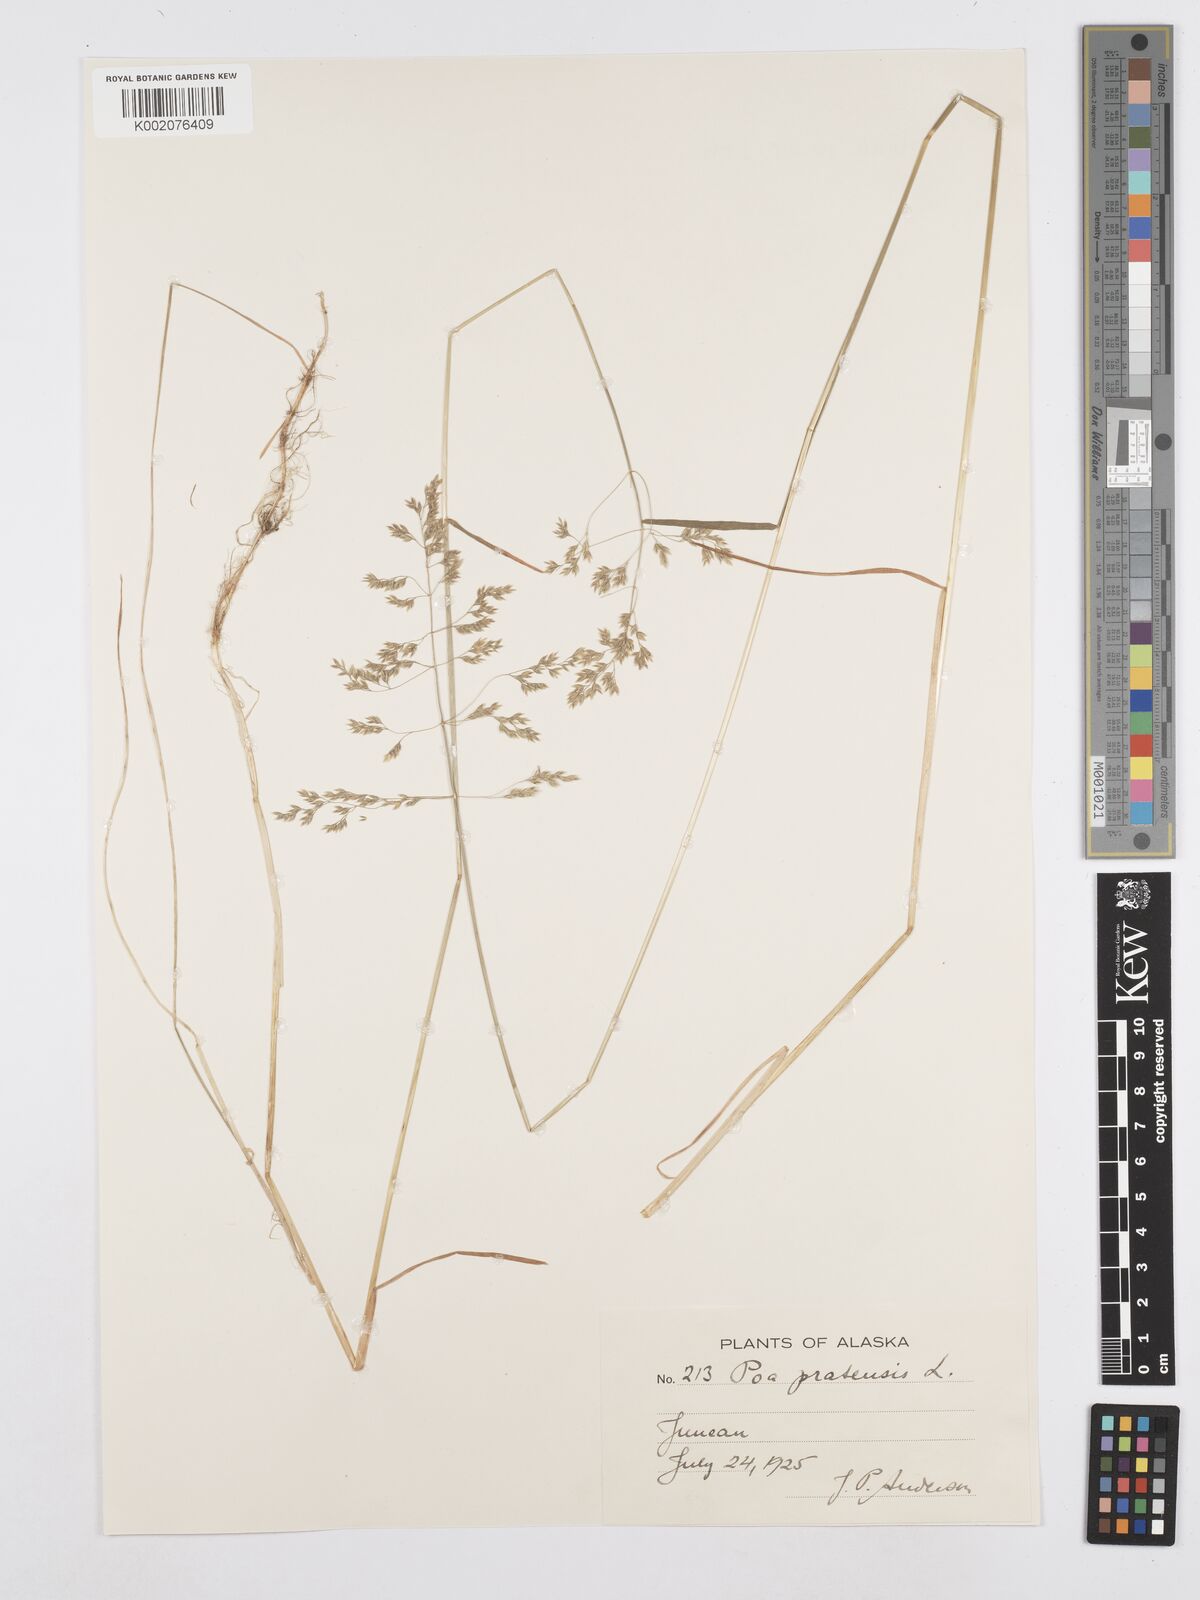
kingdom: Plantae
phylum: Tracheophyta
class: Liliopsida
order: Poales
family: Poaceae
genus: Poa
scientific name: Poa angustifolia
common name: Narrow-leaved meadow-grass
